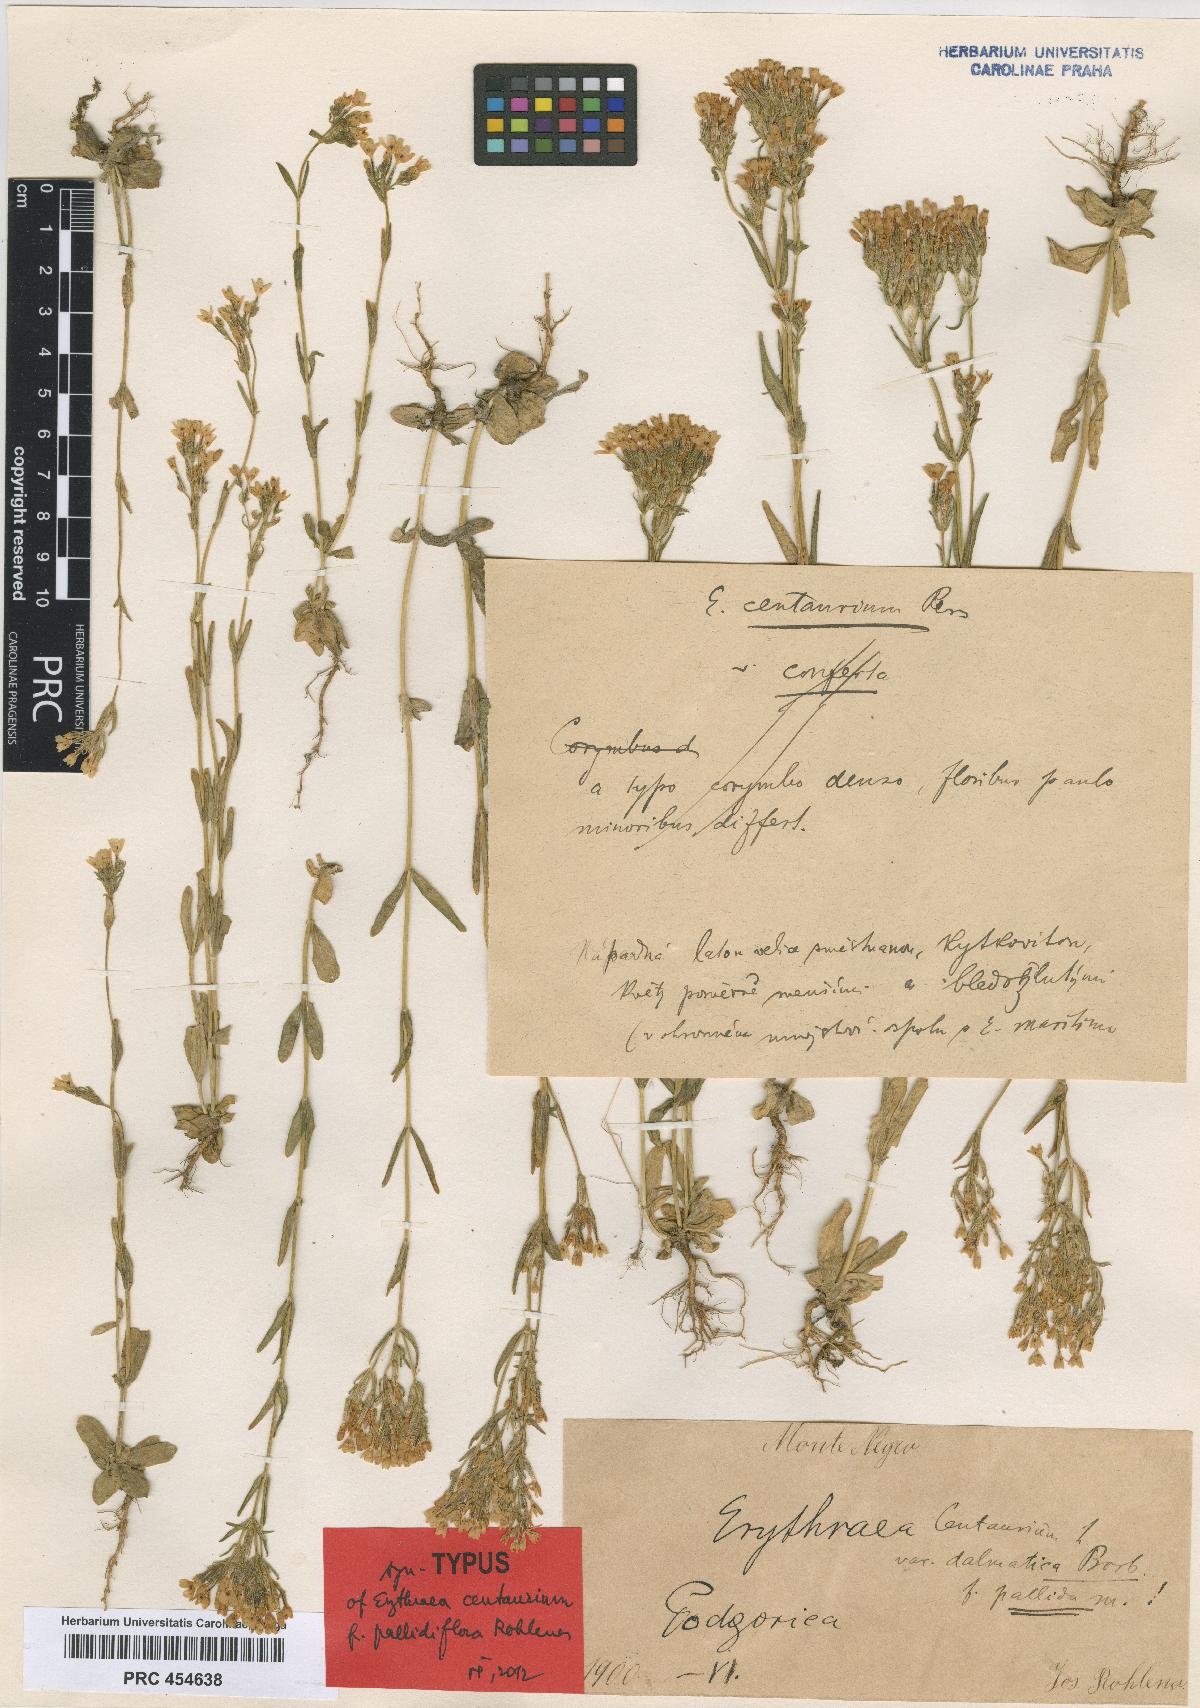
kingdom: Plantae
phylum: Tracheophyta
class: Magnoliopsida
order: Gentianales
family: Gentianaceae
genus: Centaurium
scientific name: Centaurium erythraea
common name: Common centaury
